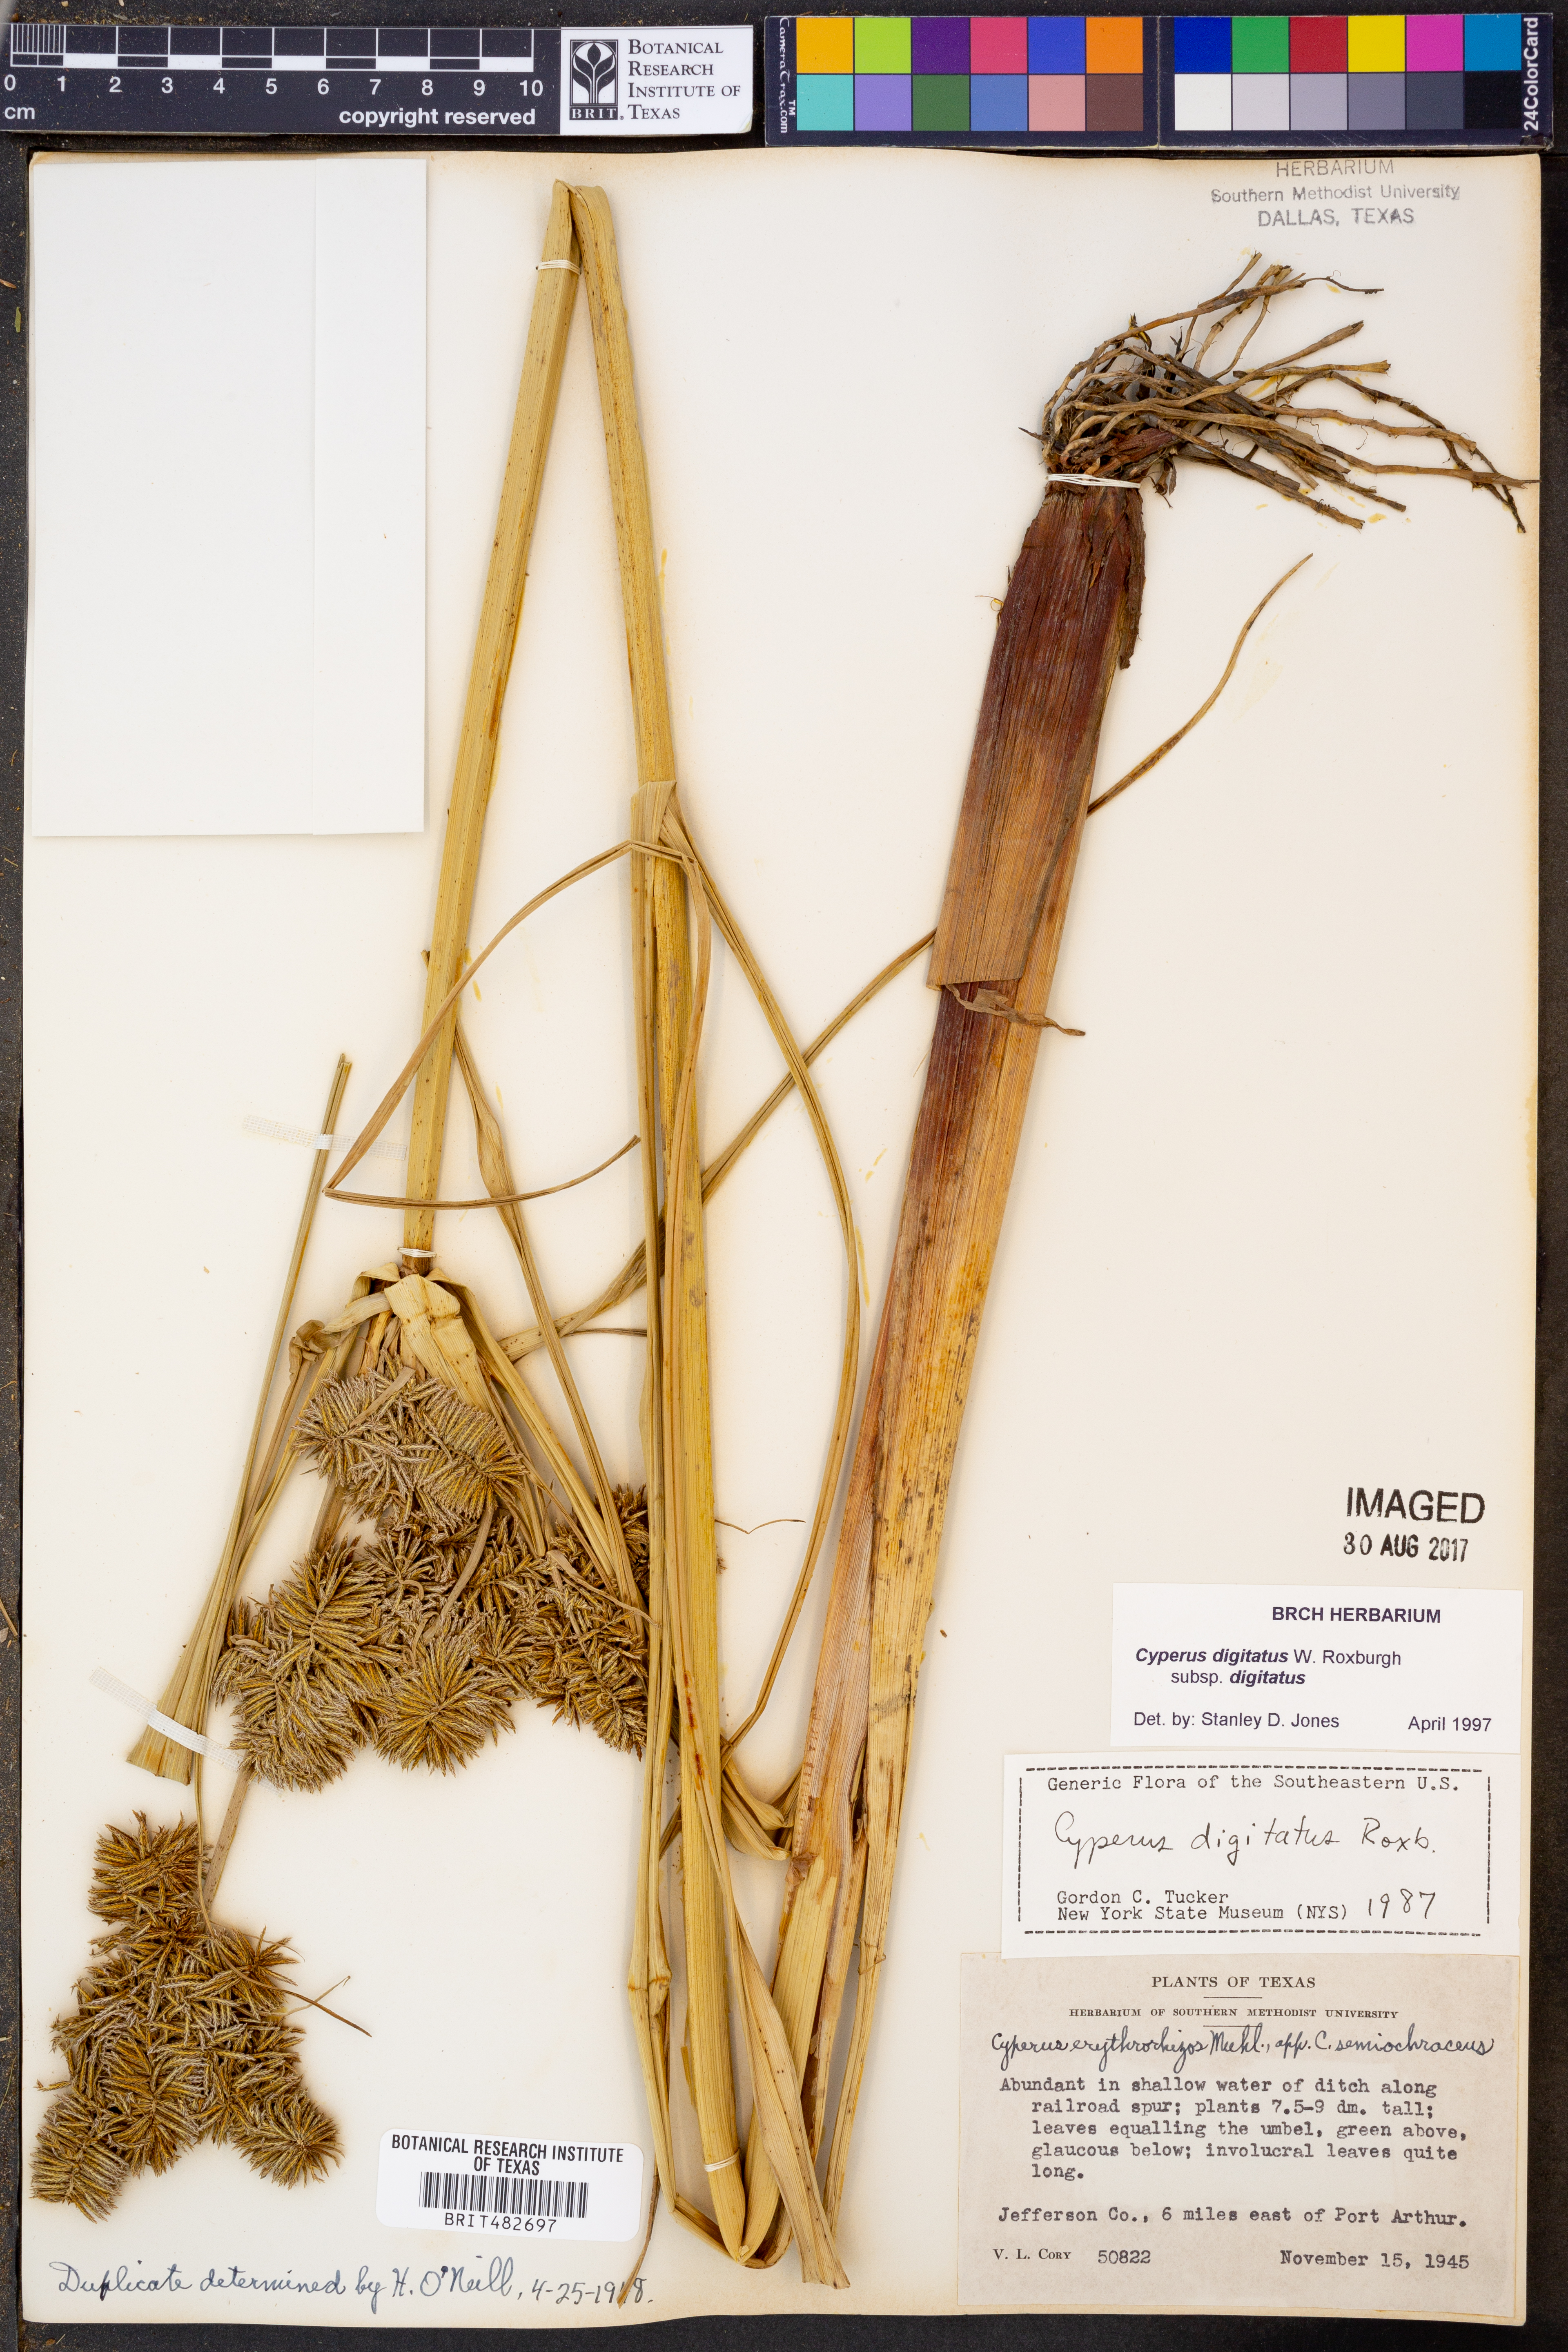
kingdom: Plantae
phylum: Tracheophyta
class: Liliopsida
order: Poales
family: Cyperaceae
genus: Cyperus
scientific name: Cyperus digitatus
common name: Finger flatsedge
